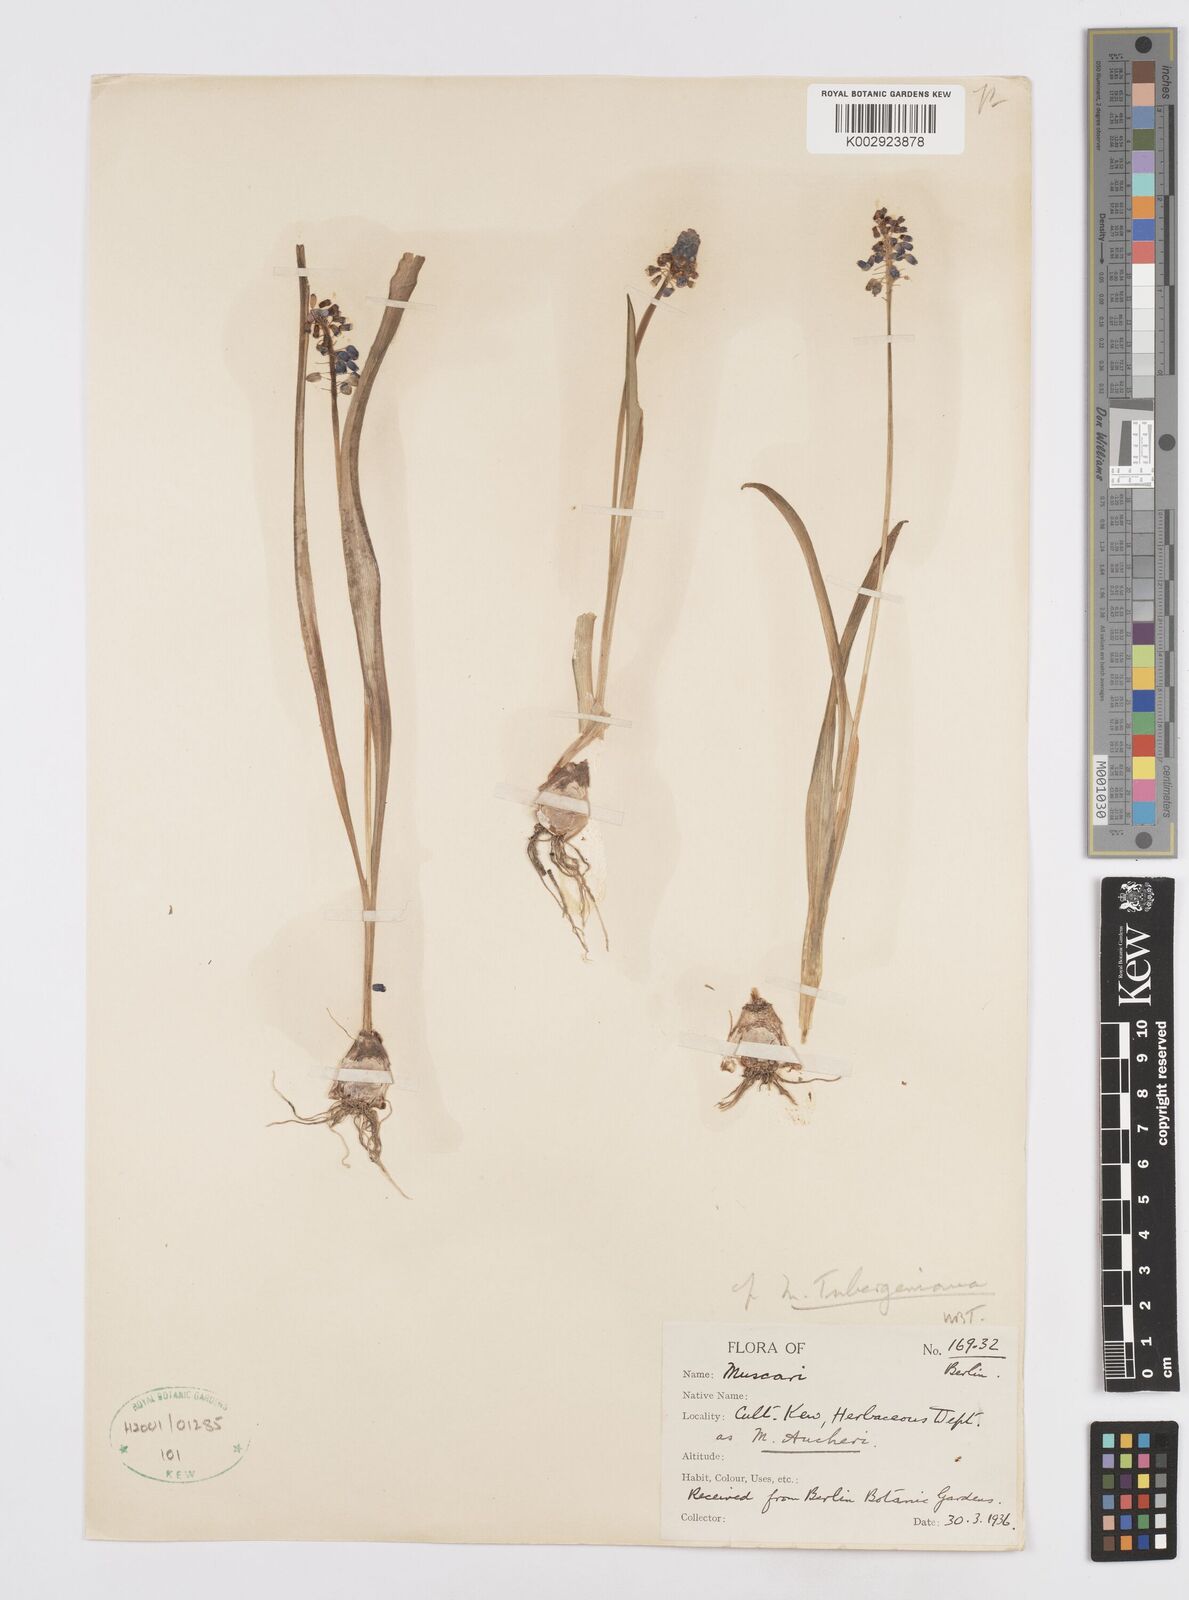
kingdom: Plantae
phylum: Tracheophyta
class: Liliopsida
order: Asparagales
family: Asparagaceae
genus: Muscari
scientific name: Muscari aucheri
